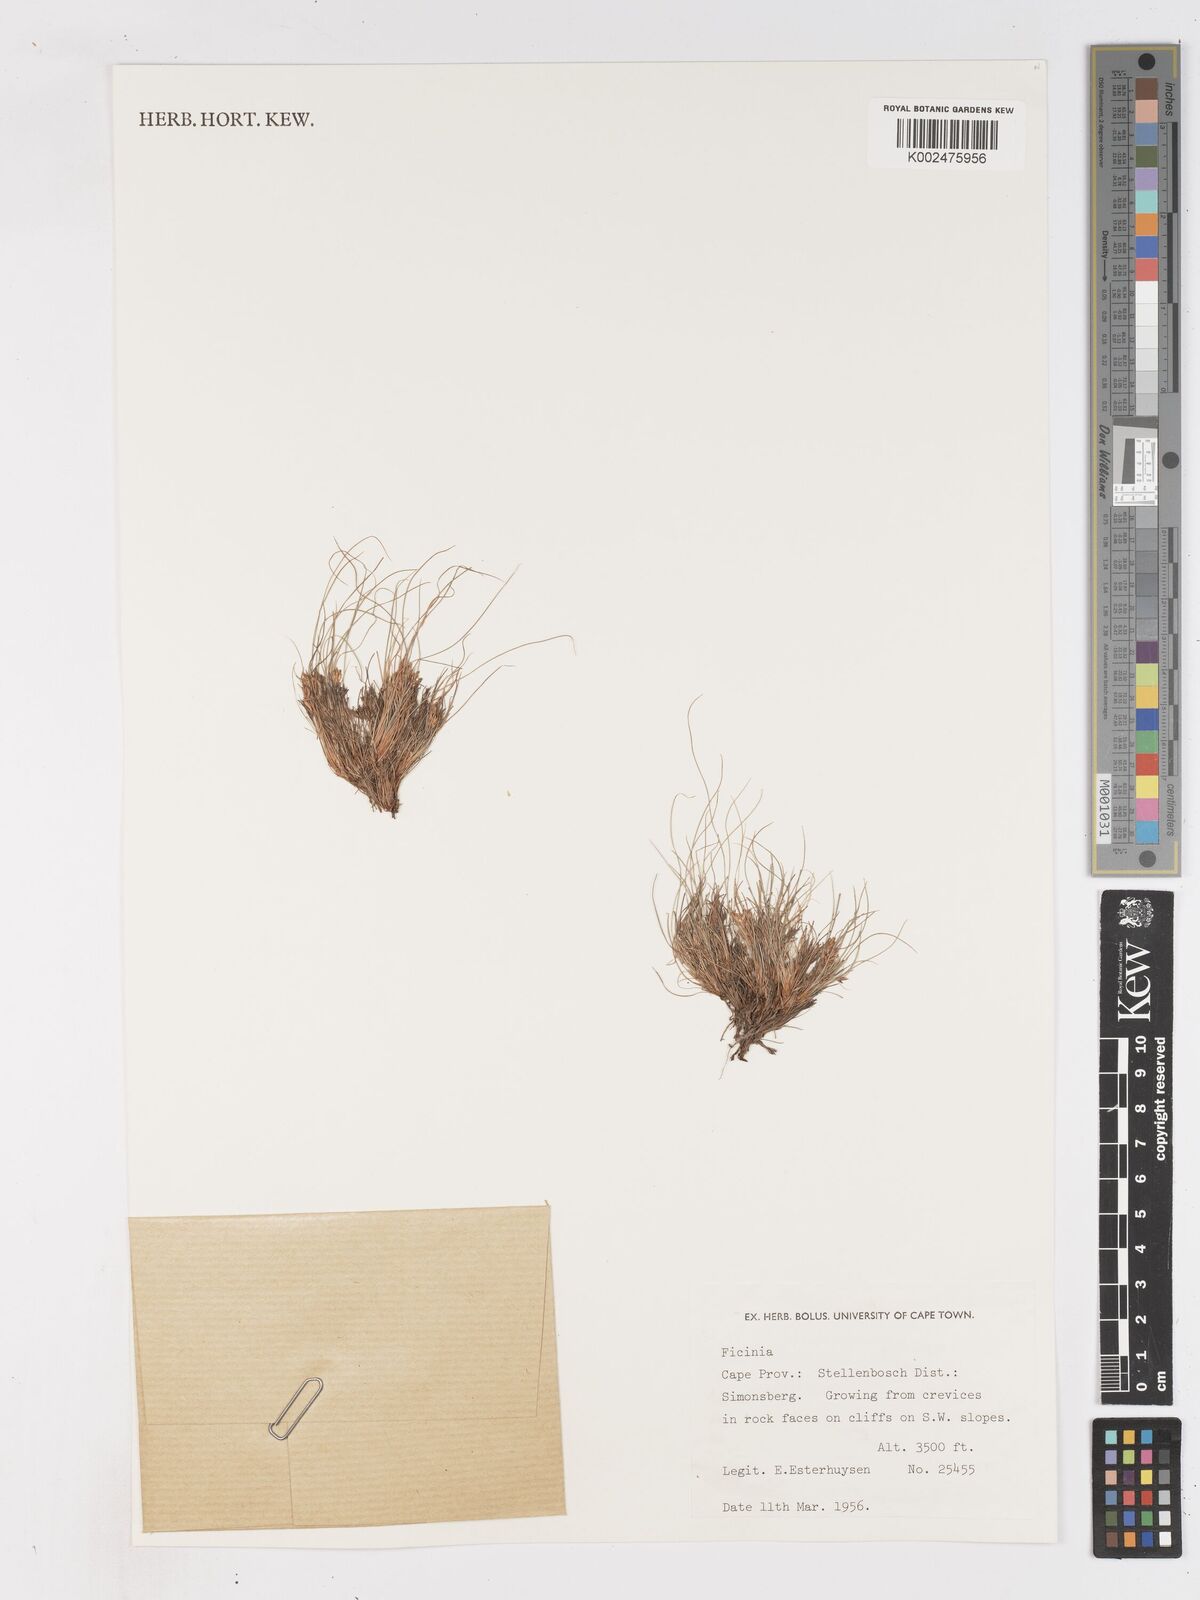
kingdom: Plantae
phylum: Tracheophyta
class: Liliopsida
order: Poales
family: Cyperaceae
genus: Ficinia
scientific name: Ficinia esterhuyseniae
